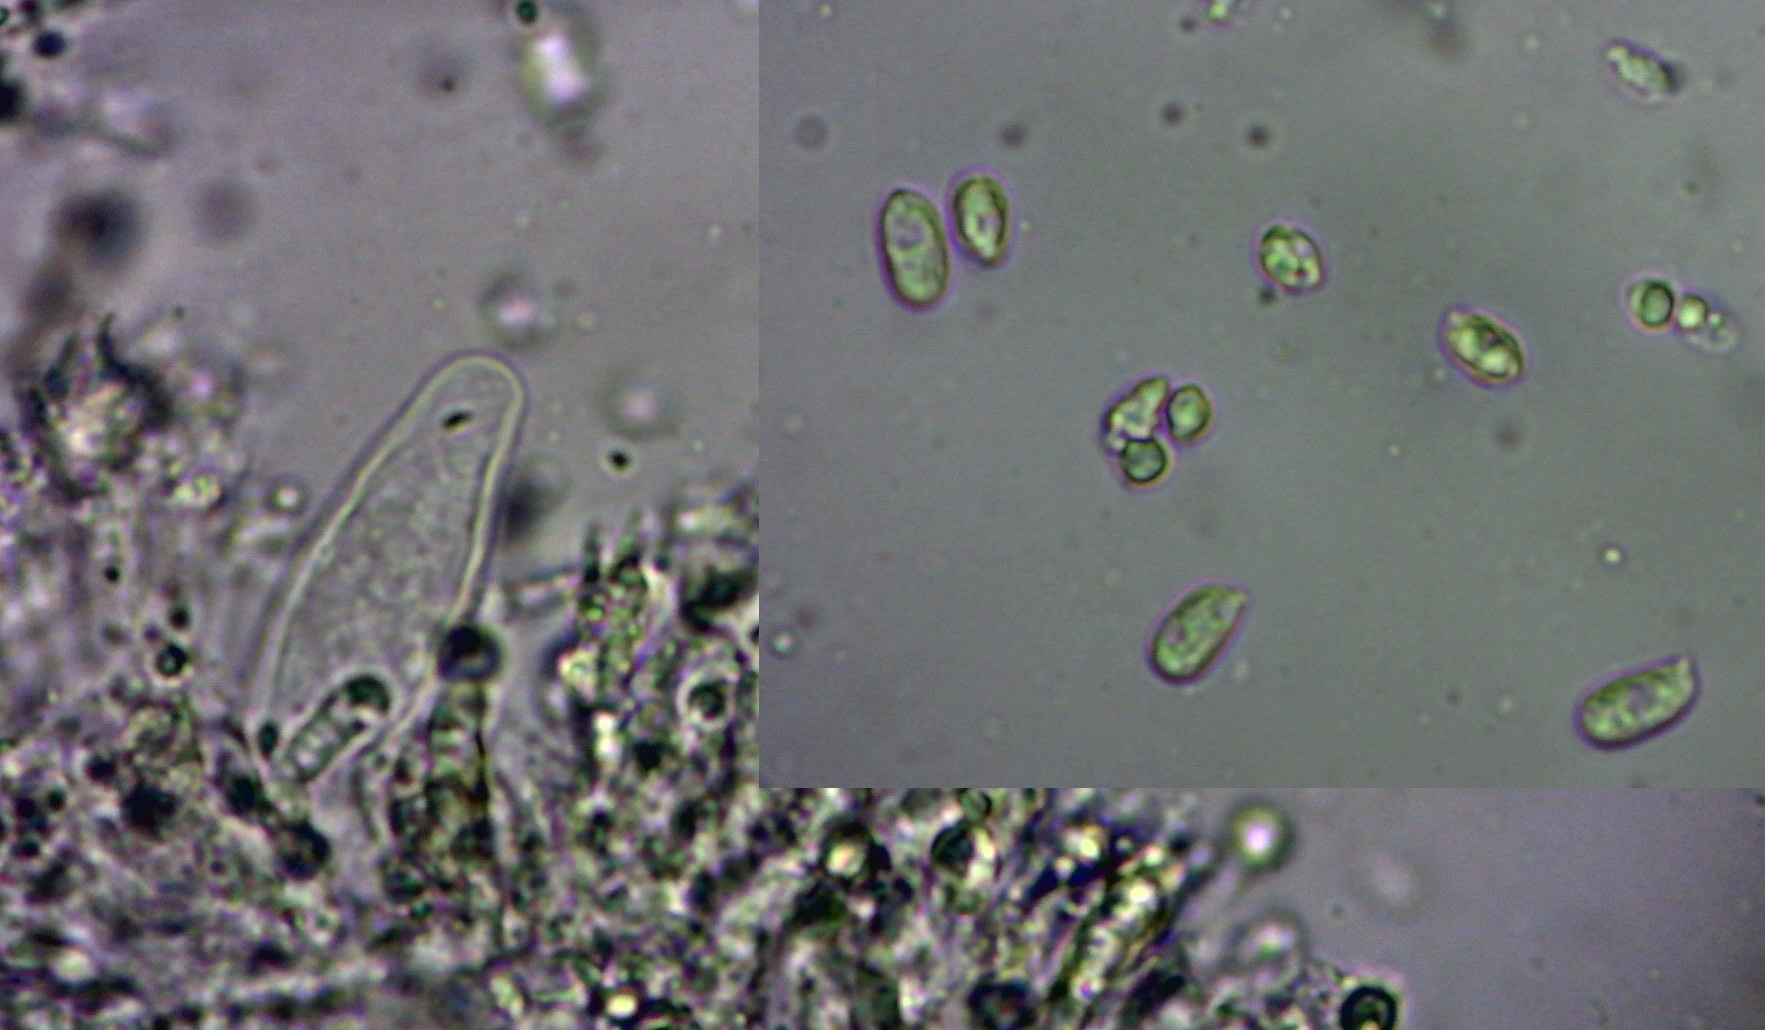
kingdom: Fungi
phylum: Basidiomycota
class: Agaricomycetes
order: Agaricales
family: Mycenaceae
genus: Mycena
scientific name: Mycena rosea
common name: rosa huesvamp
